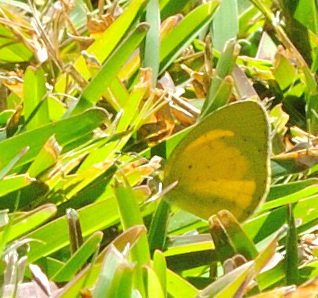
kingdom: Animalia
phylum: Arthropoda
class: Insecta
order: Lepidoptera
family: Pieridae
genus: Eurema
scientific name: Eurema brigitta
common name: Broad-bordered Grass Yellow
